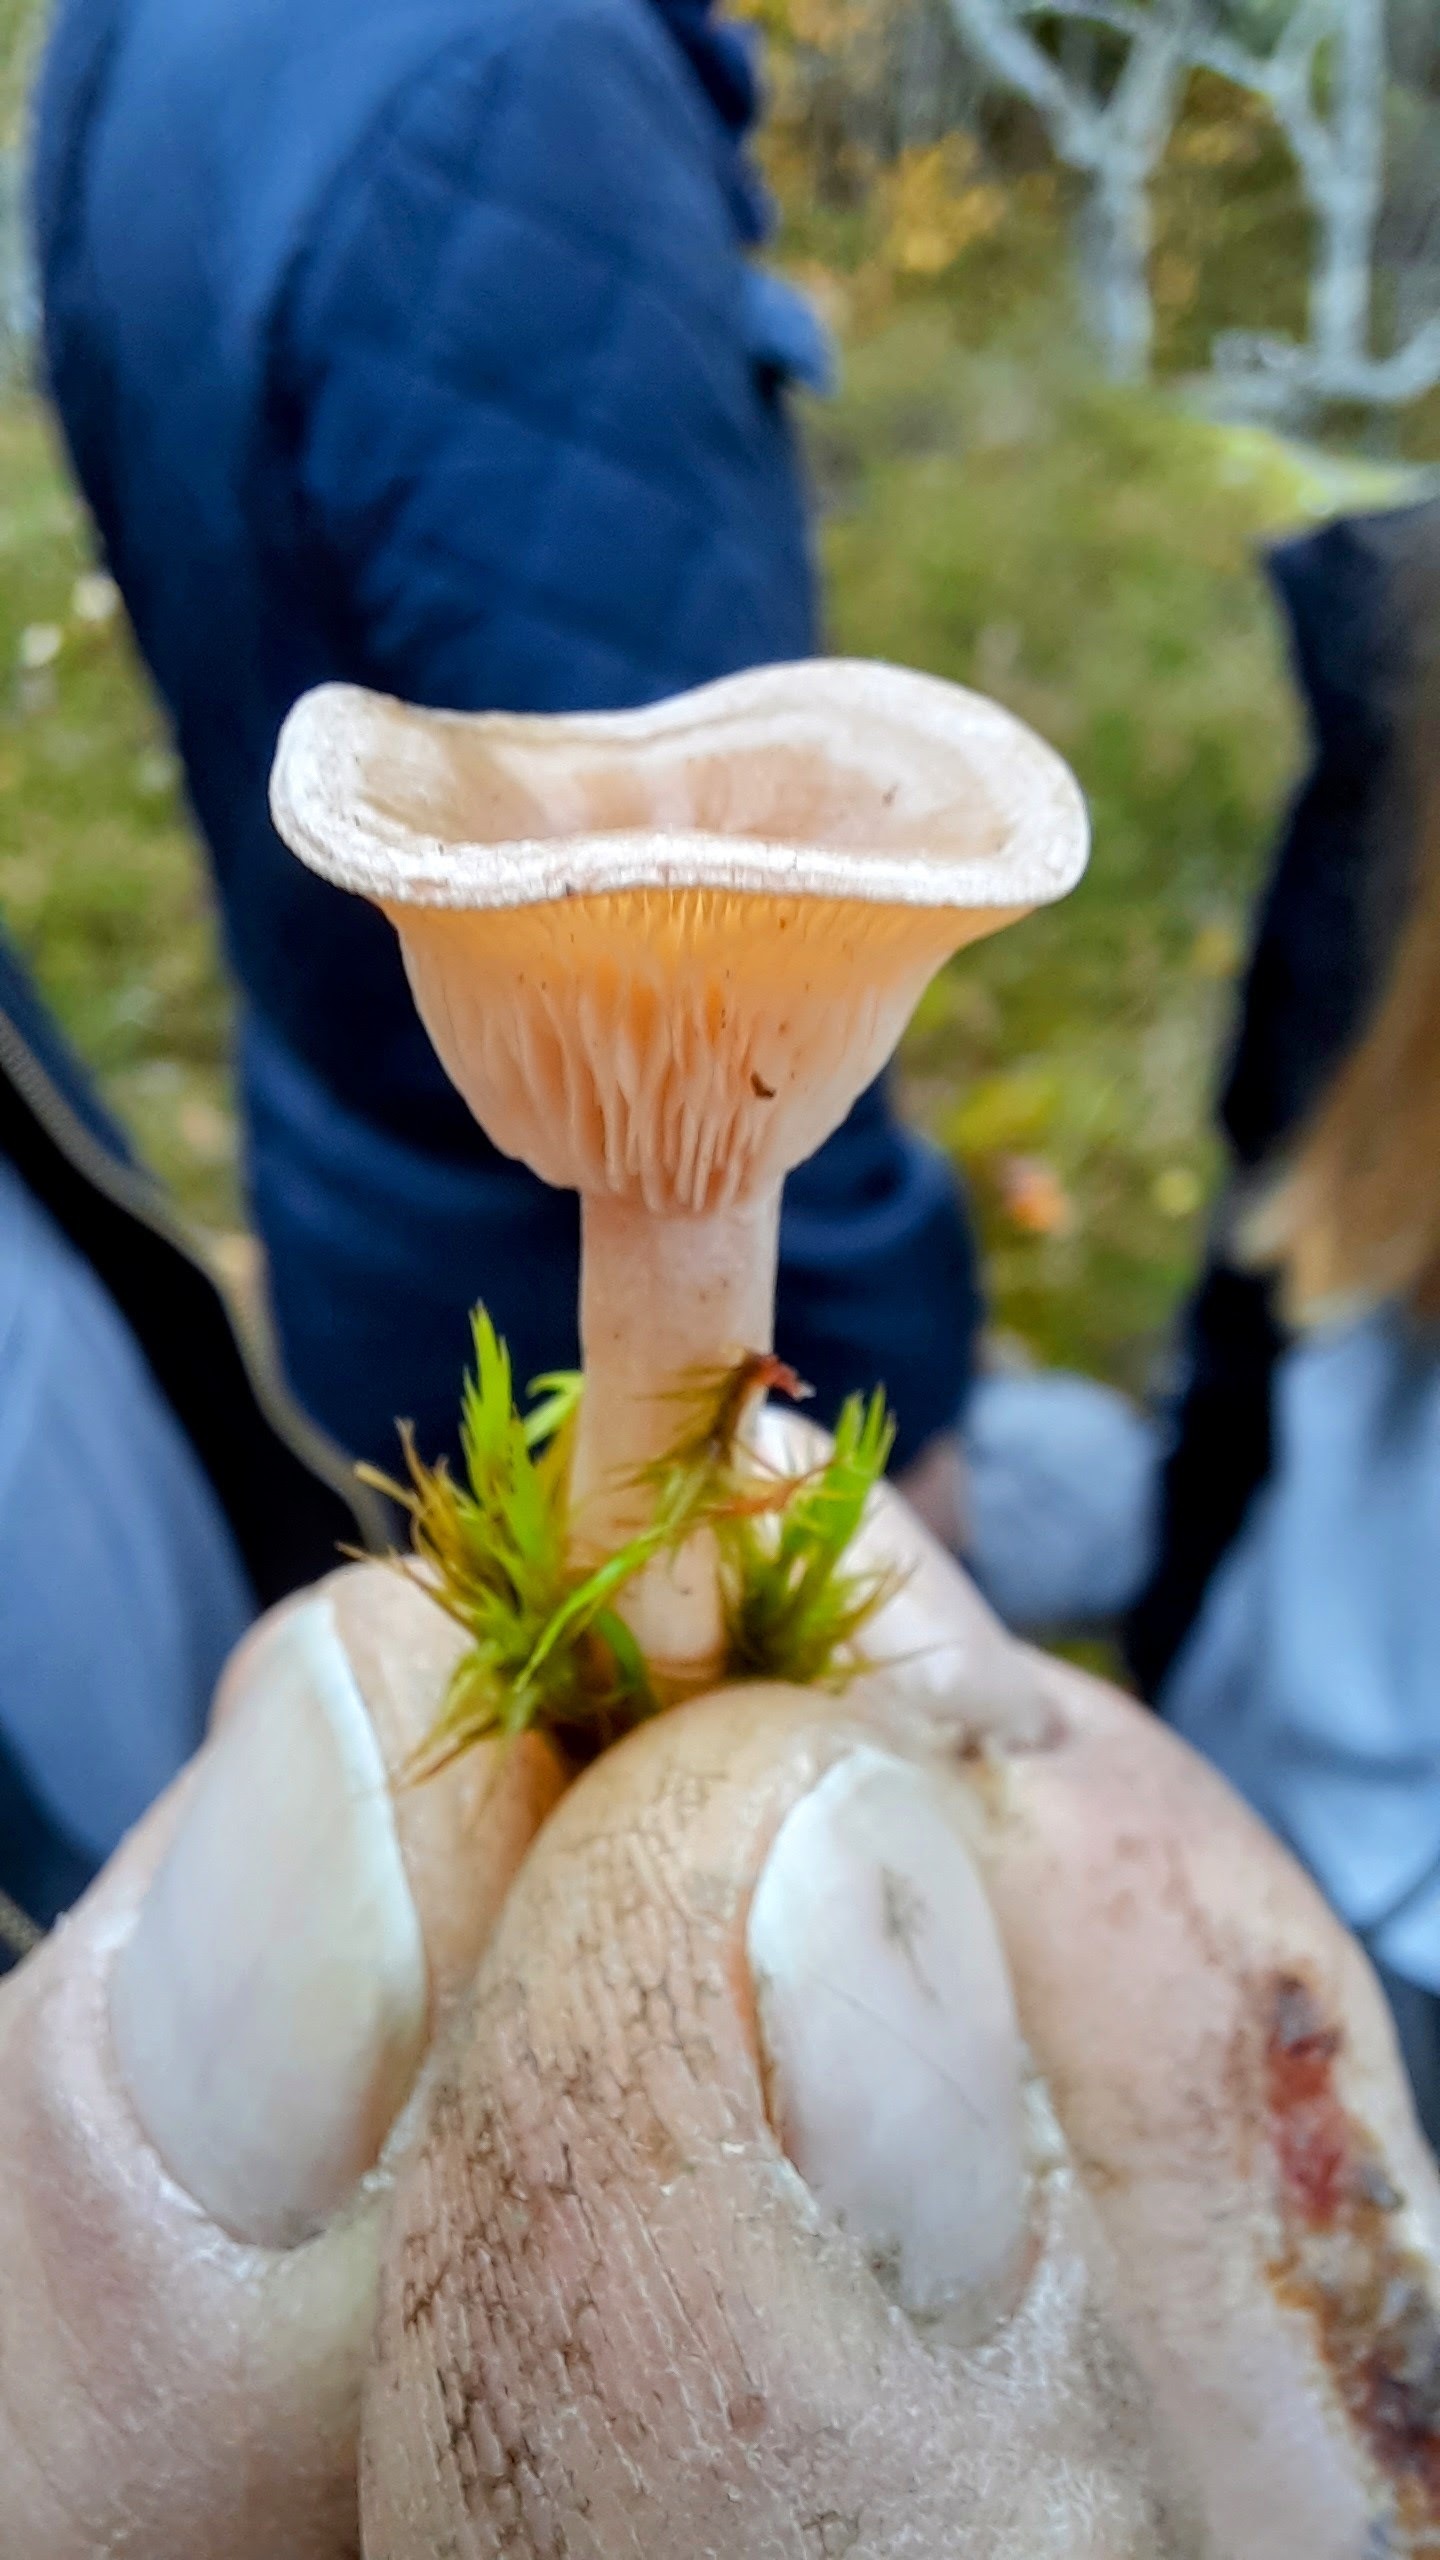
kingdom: Fungi
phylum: Basidiomycota
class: Agaricomycetes
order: Agaricales
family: Tricholomataceae
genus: Clitocybe
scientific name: Clitocybe
